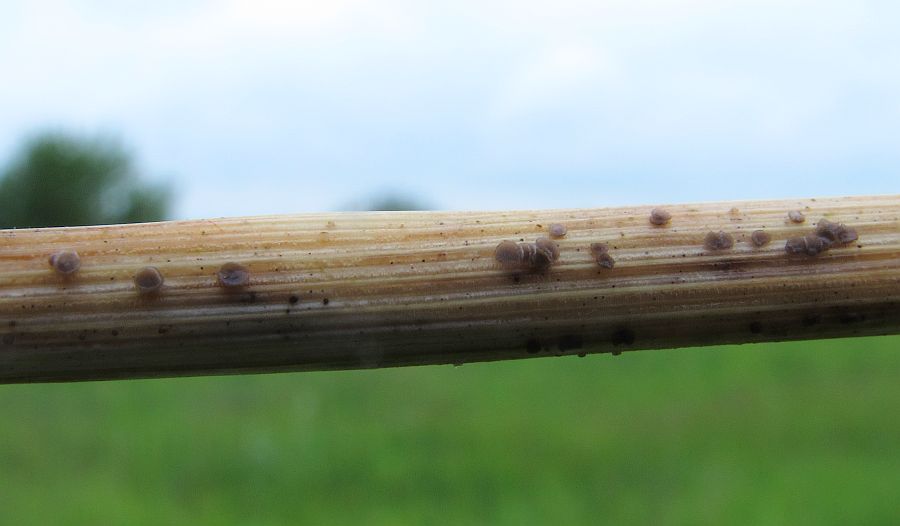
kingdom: Fungi
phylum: Ascomycota
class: Leotiomycetes
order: Helotiales
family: Mollisiaceae
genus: Mollisia
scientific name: Mollisia palustris
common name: sump-gråskive
